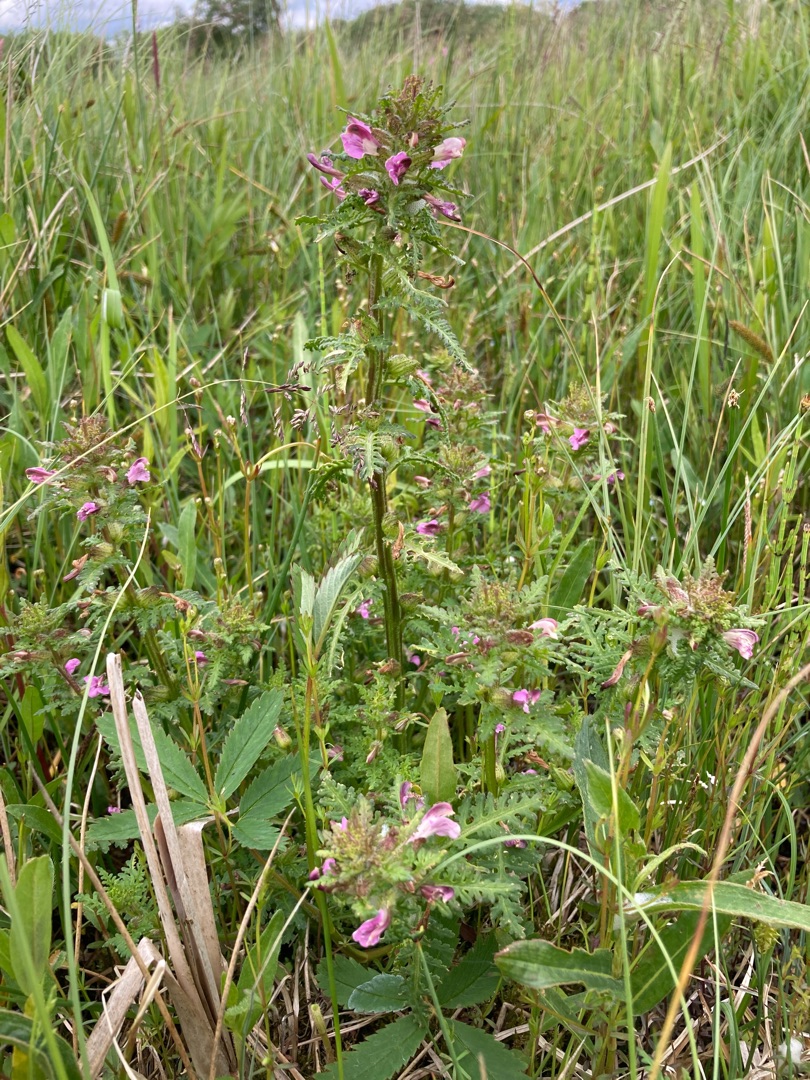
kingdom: Plantae
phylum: Tracheophyta
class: Magnoliopsida
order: Lamiales
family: Orobanchaceae
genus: Pedicularis
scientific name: Pedicularis palustris
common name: Eng-troldurt
